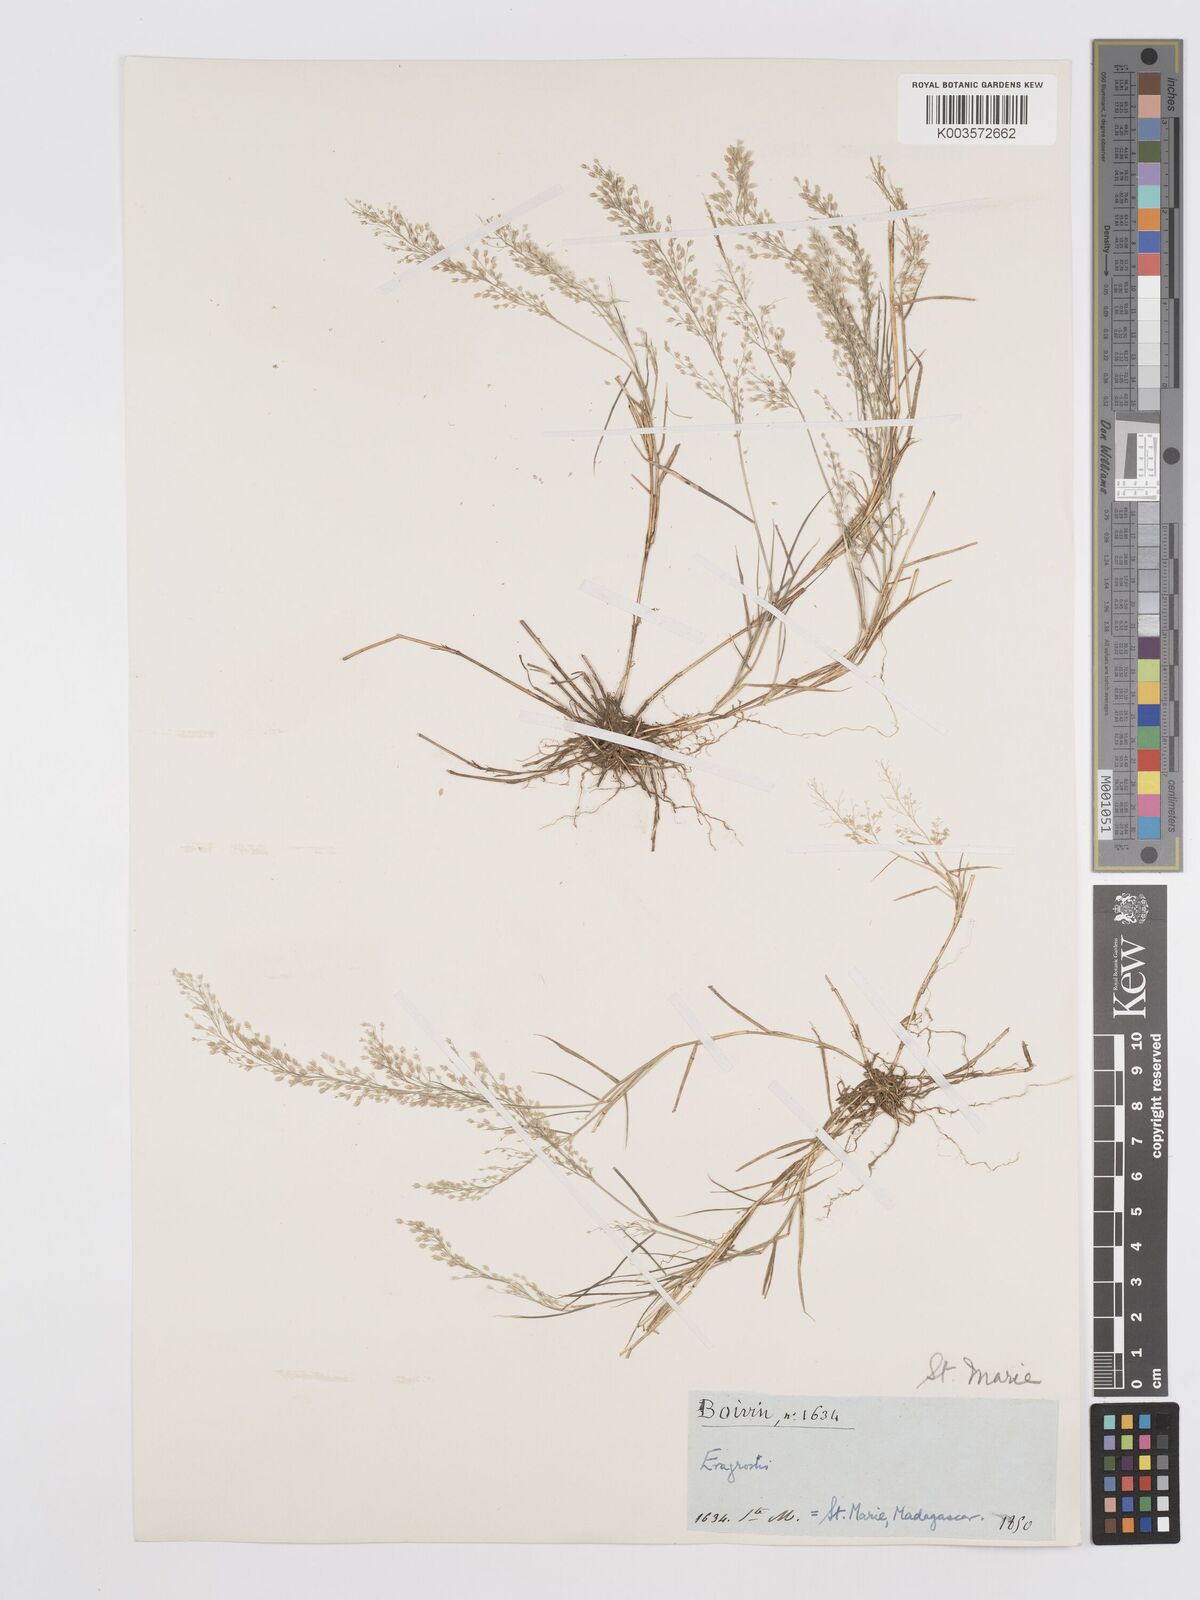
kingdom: Plantae
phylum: Tracheophyta
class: Liliopsida
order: Poales
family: Poaceae
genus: Eragrostis
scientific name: Eragrostis tenella
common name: Japanese lovegrass
